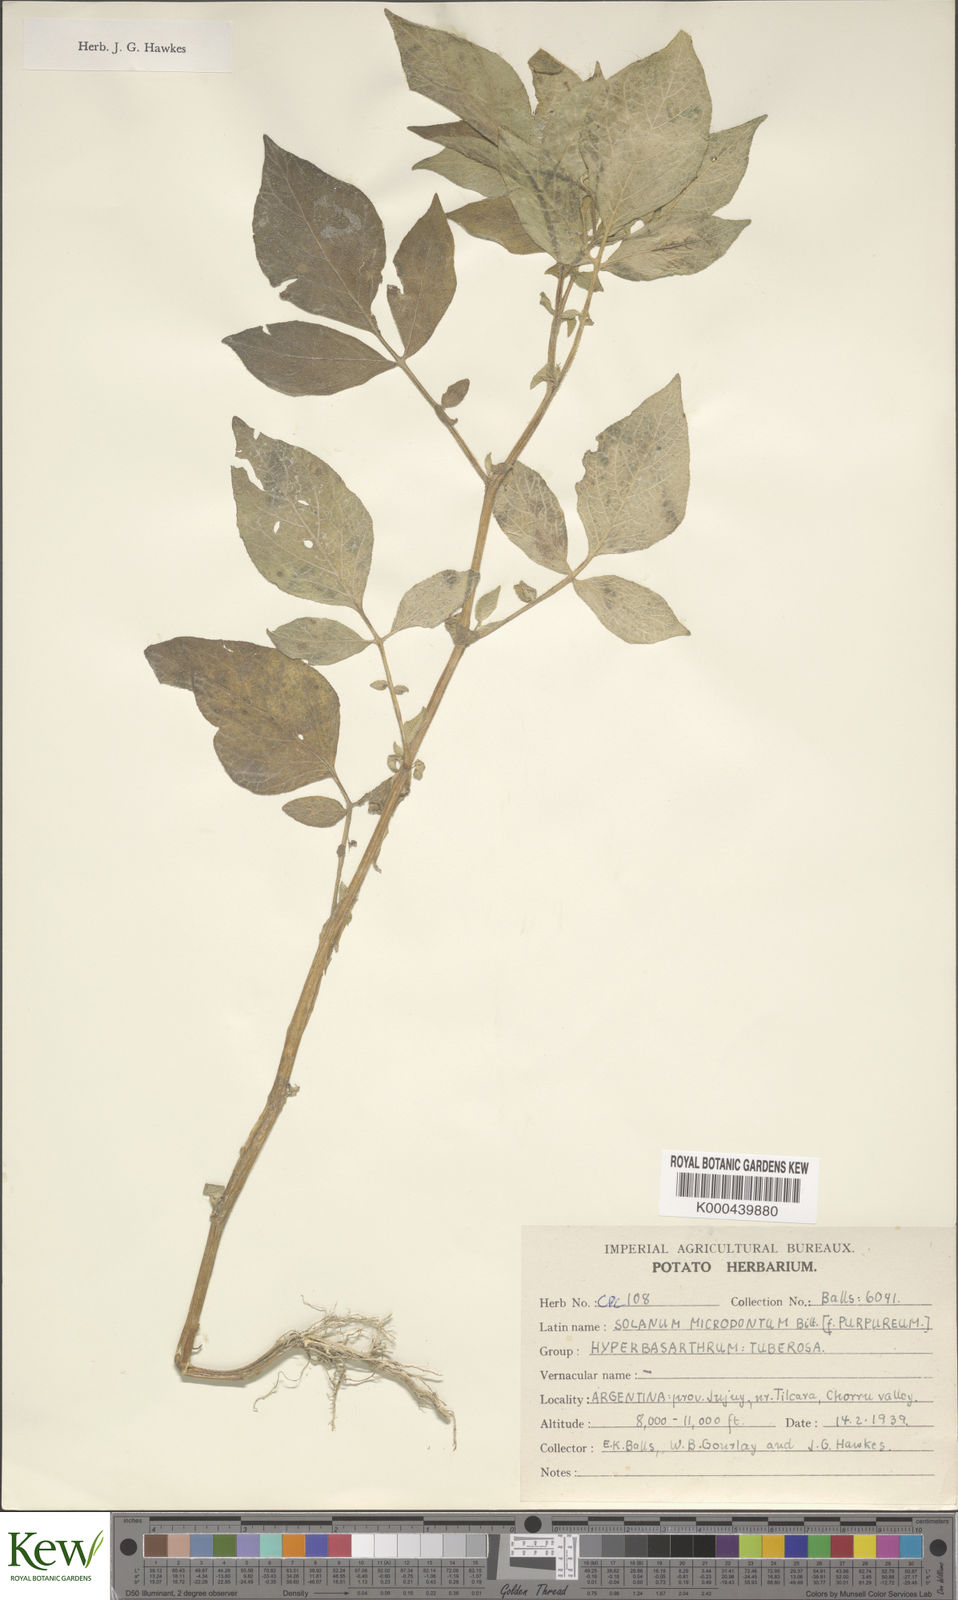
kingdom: Plantae
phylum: Tracheophyta
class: Magnoliopsida
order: Solanales
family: Solanaceae
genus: Solanum
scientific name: Solanum microdontum
